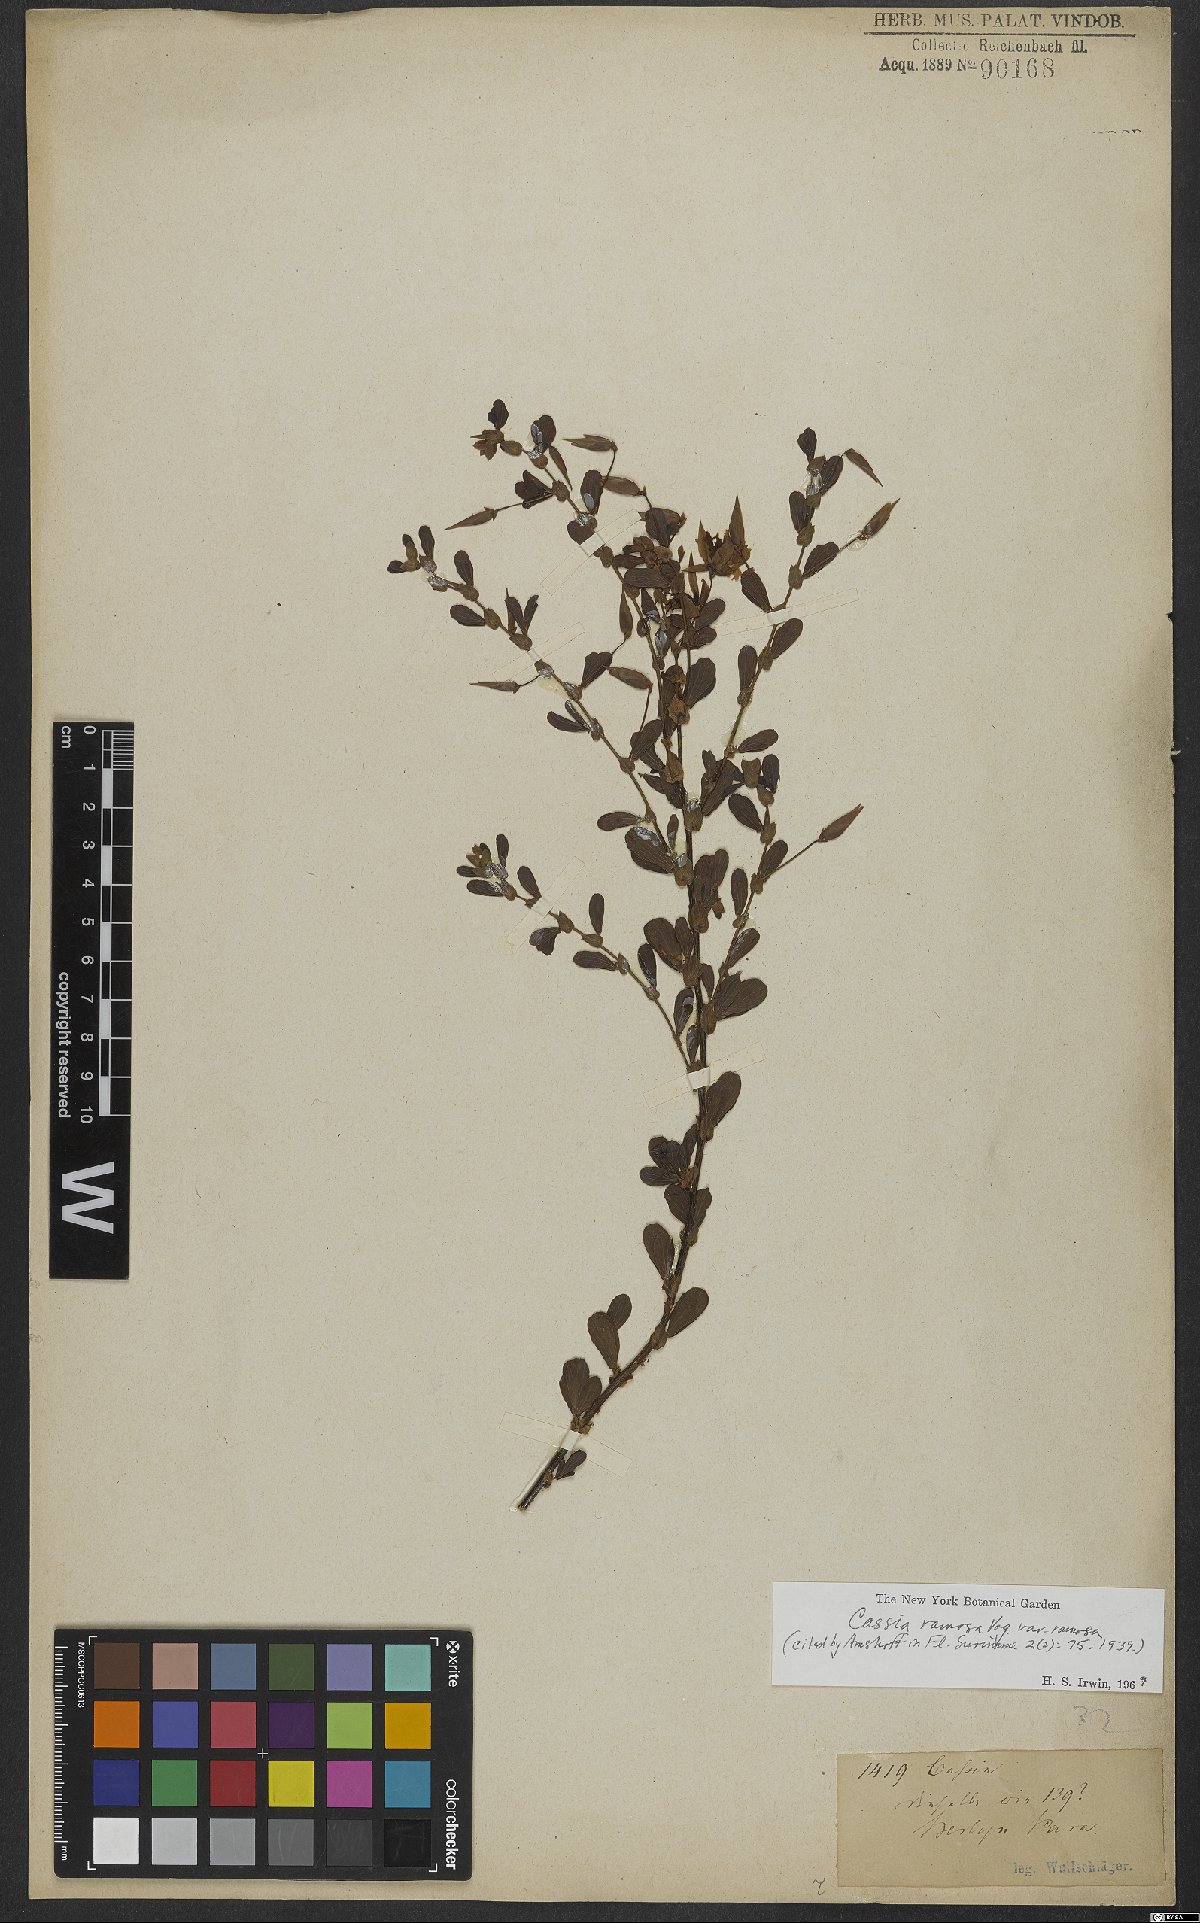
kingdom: Plantae
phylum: Tracheophyta
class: Magnoliopsida
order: Fabales
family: Fabaceae
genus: Chamaecrista
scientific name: Chamaecrista ensiformis
